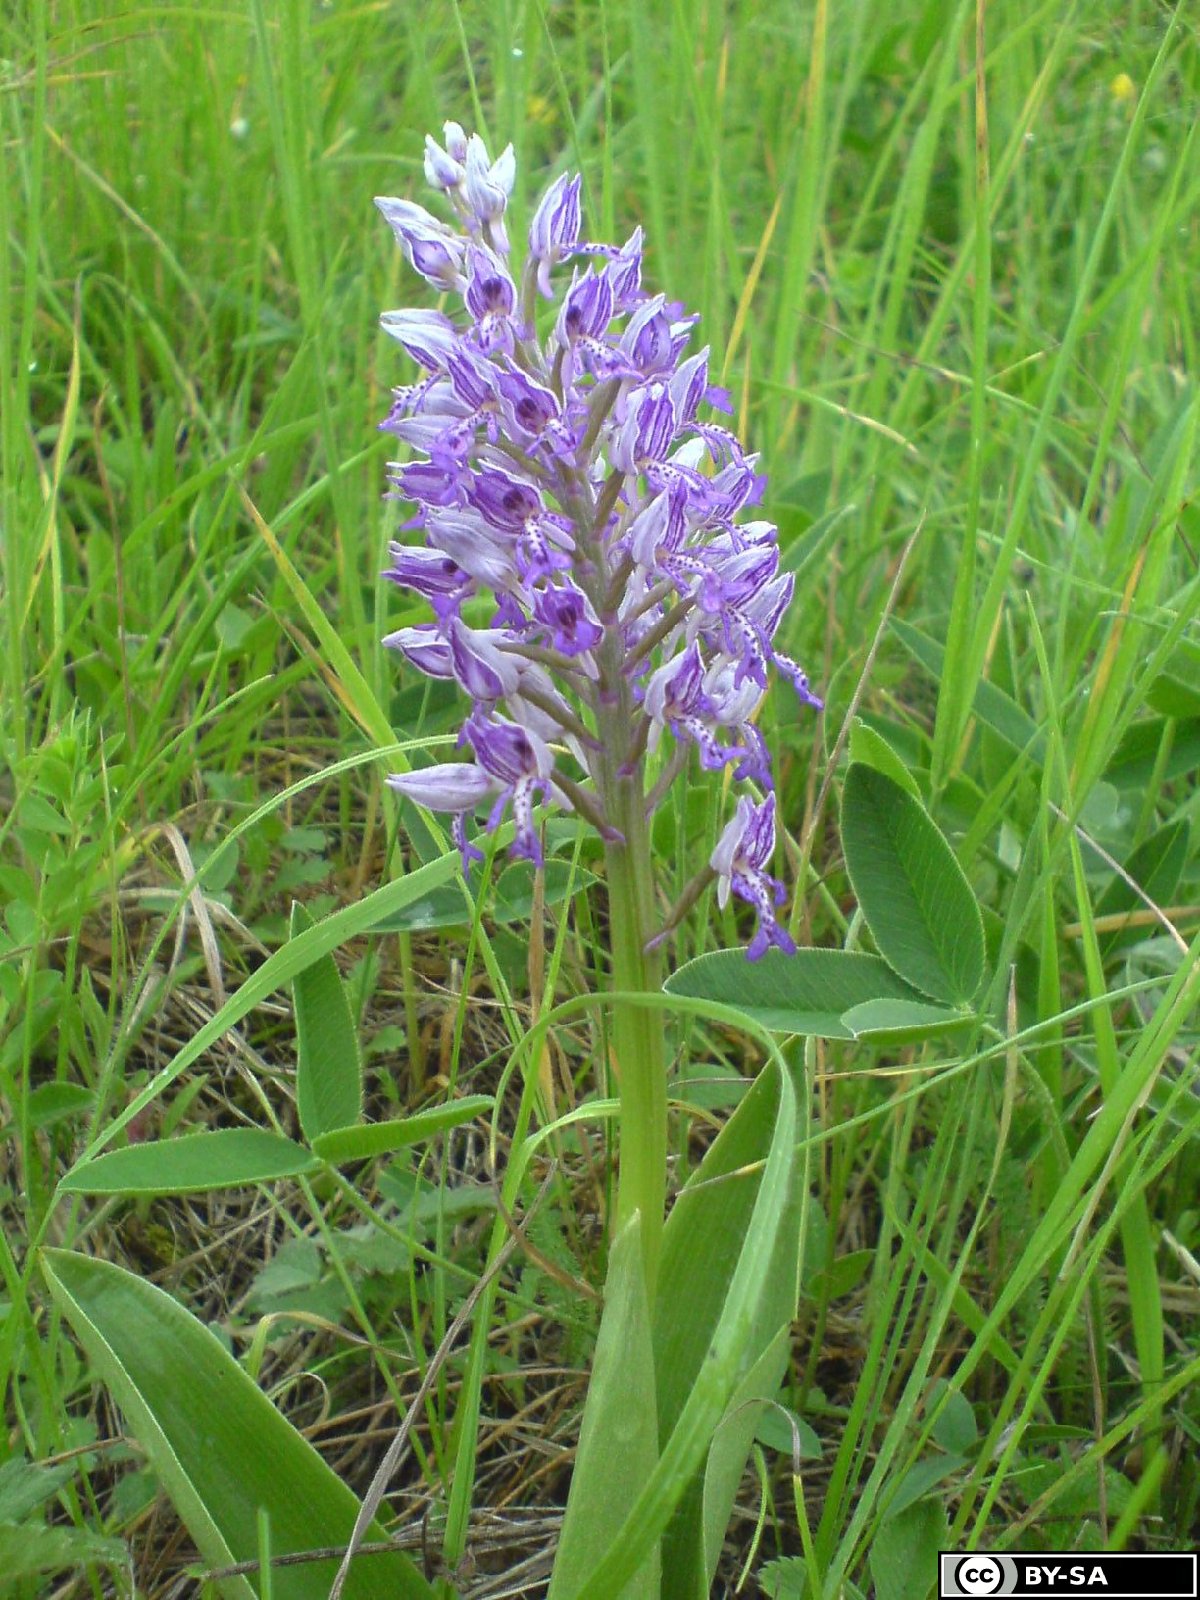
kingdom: Plantae
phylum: Tracheophyta
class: Liliopsida
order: Asparagales
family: Orchidaceae
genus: Orchis
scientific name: Orchis militaris
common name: Military orchid
